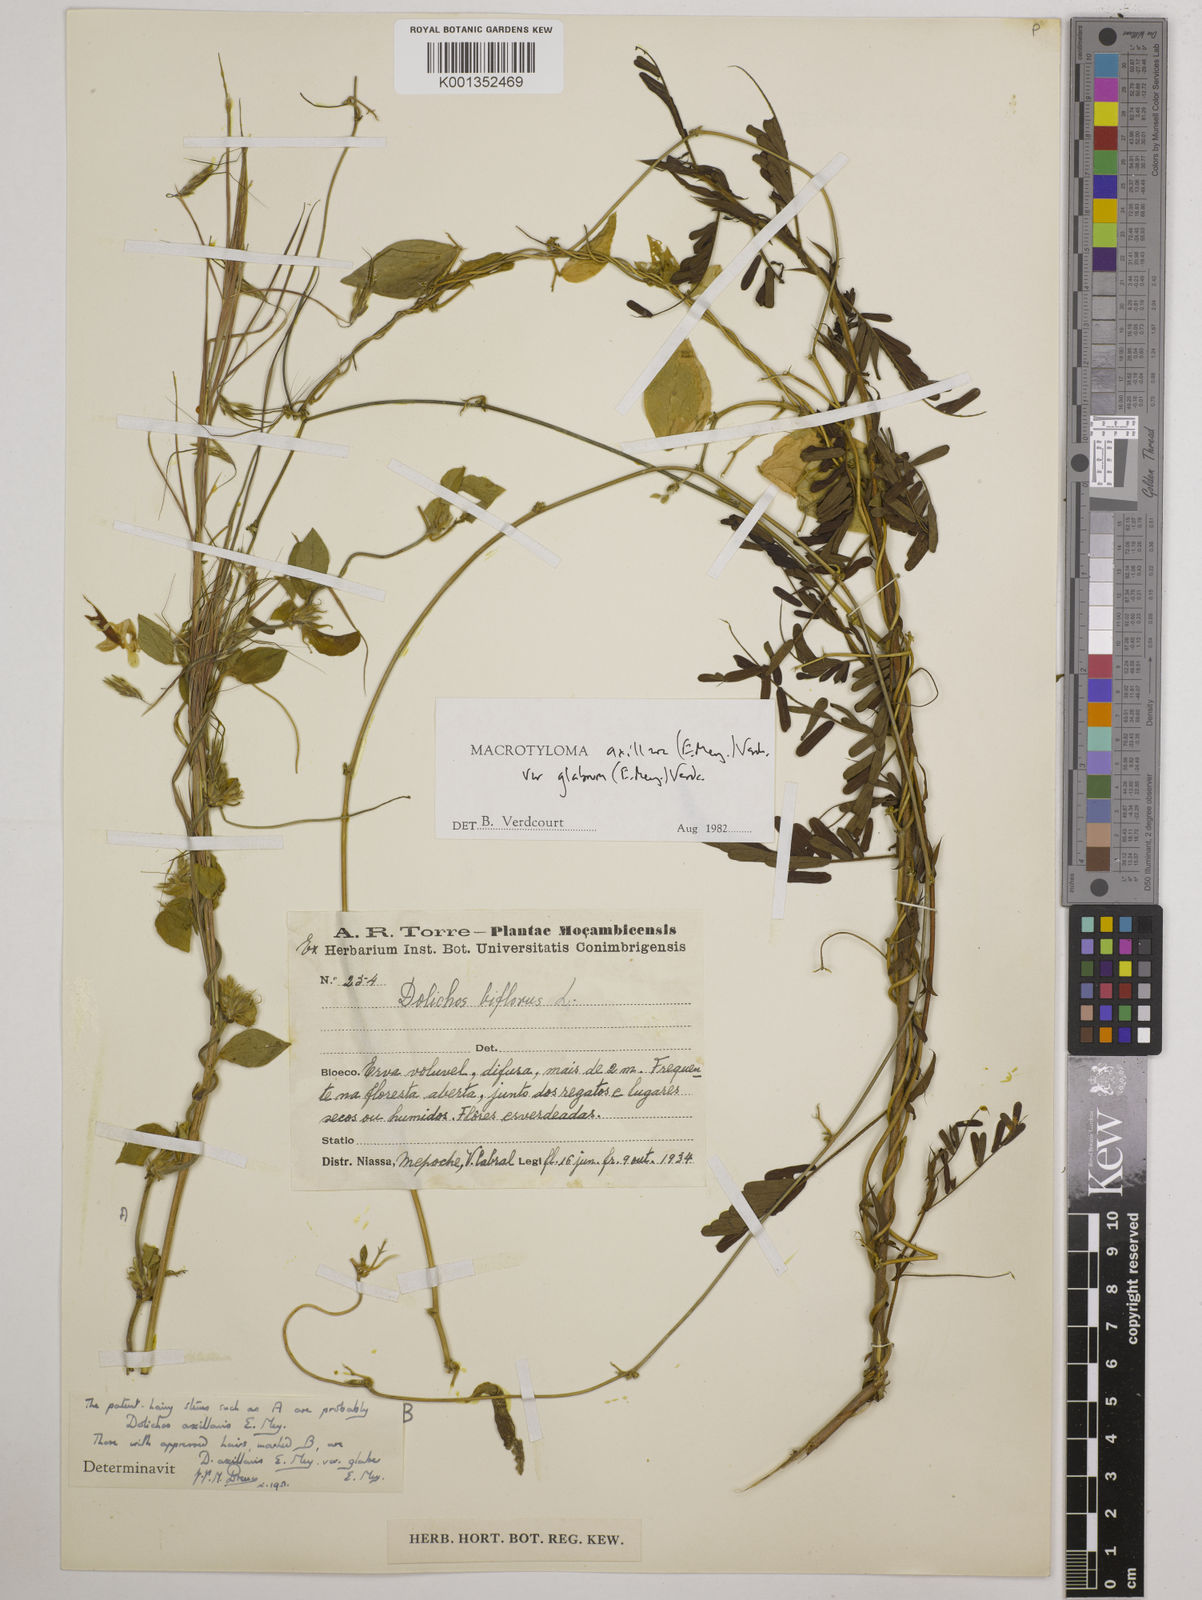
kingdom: Plantae
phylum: Tracheophyta
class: Magnoliopsida
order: Fabales
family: Fabaceae
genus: Macrotyloma
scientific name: Macrotyloma
